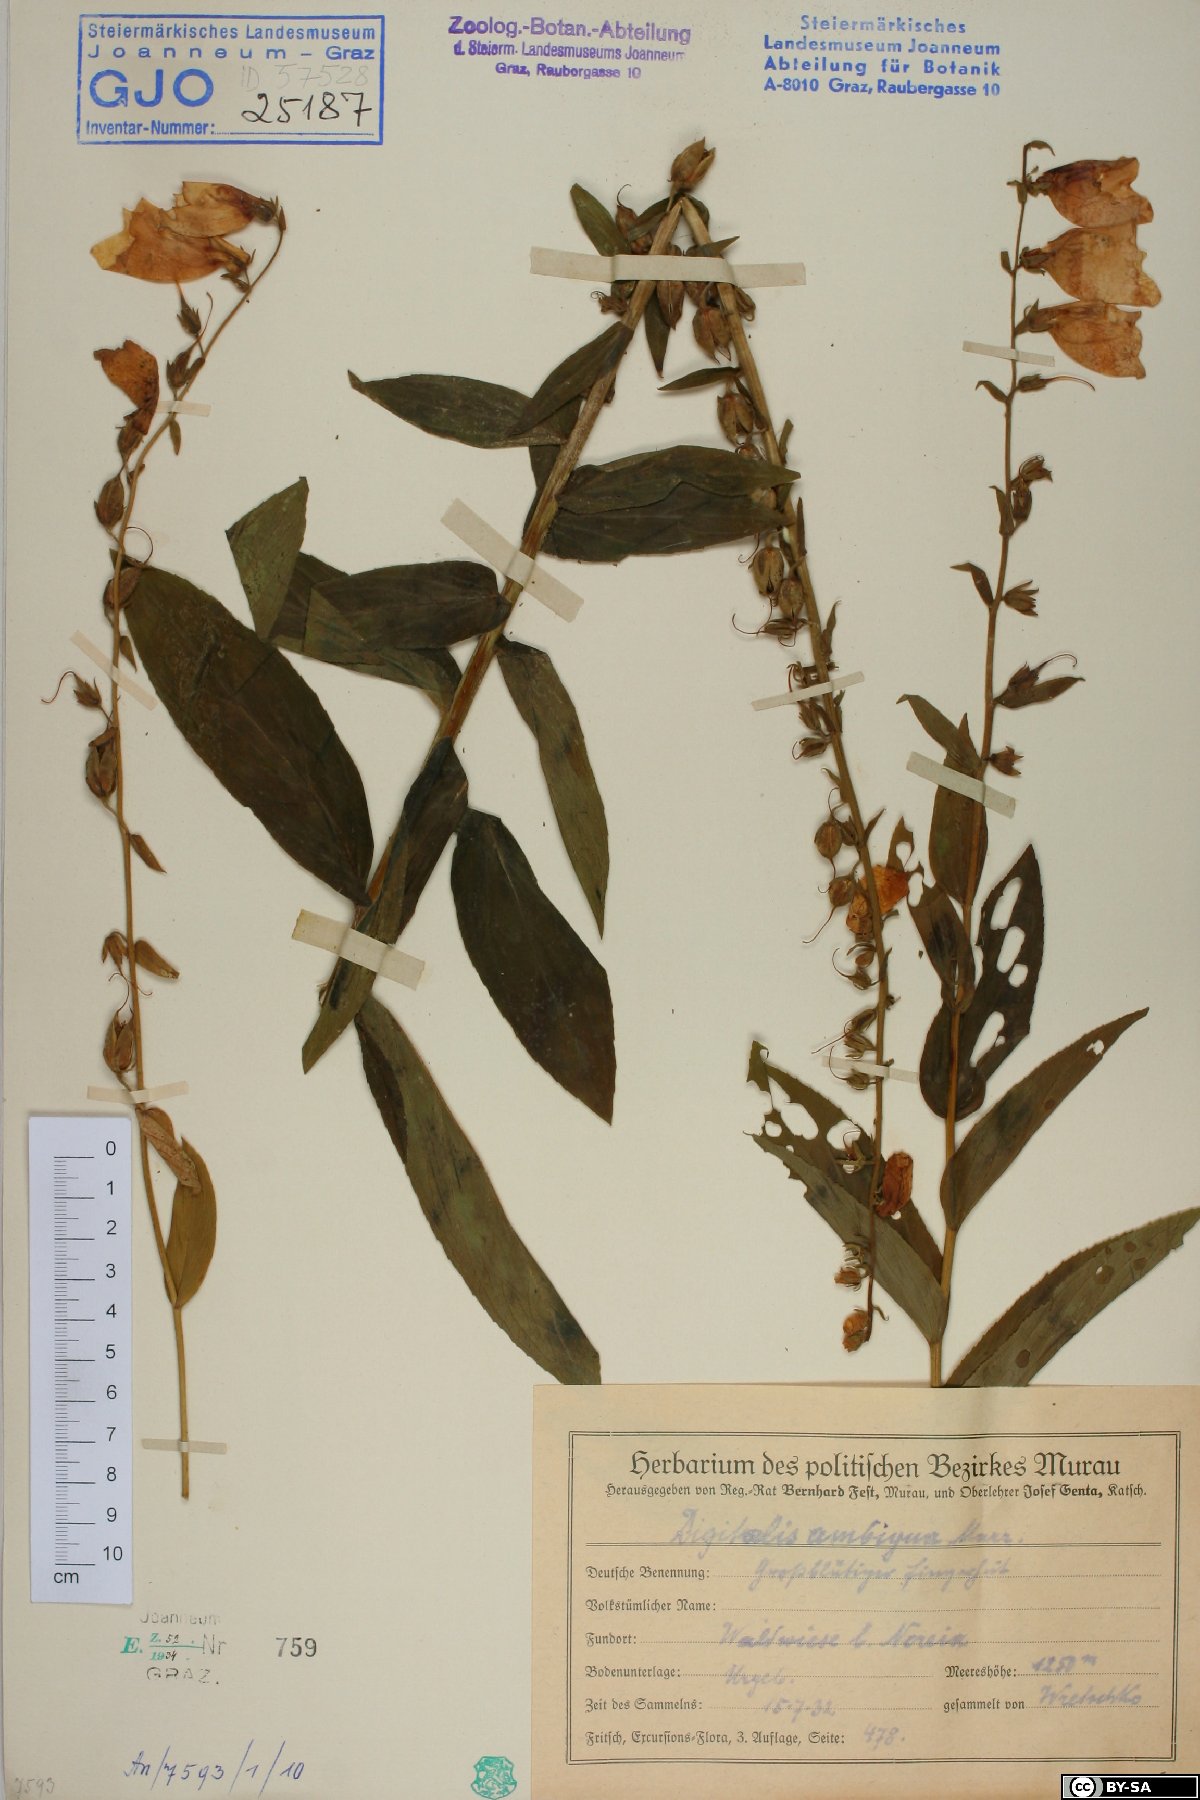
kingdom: Plantae
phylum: Tracheophyta
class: Magnoliopsida
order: Lamiales
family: Plantaginaceae
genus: Digitalis
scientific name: Digitalis grandiflora
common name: Yellow foxglove
